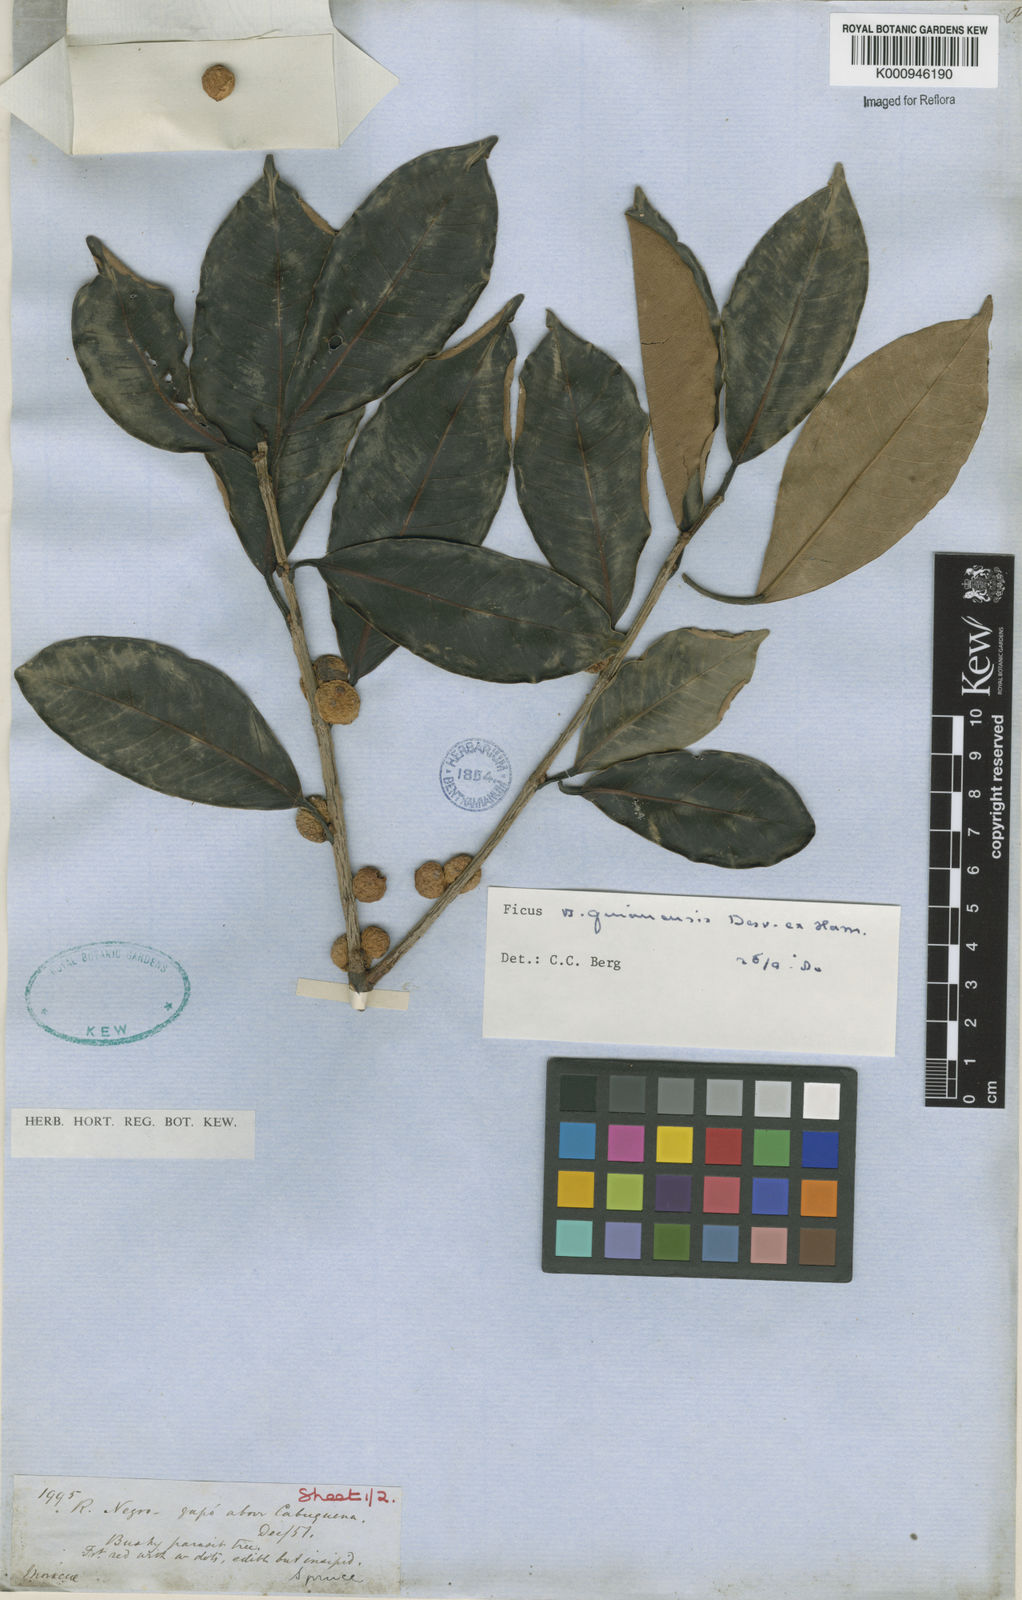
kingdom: Plantae
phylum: Tracheophyta
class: Magnoliopsida
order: Rosales
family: Moraceae
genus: Ficus
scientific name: Ficus americana
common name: Jamaican cherry fig
